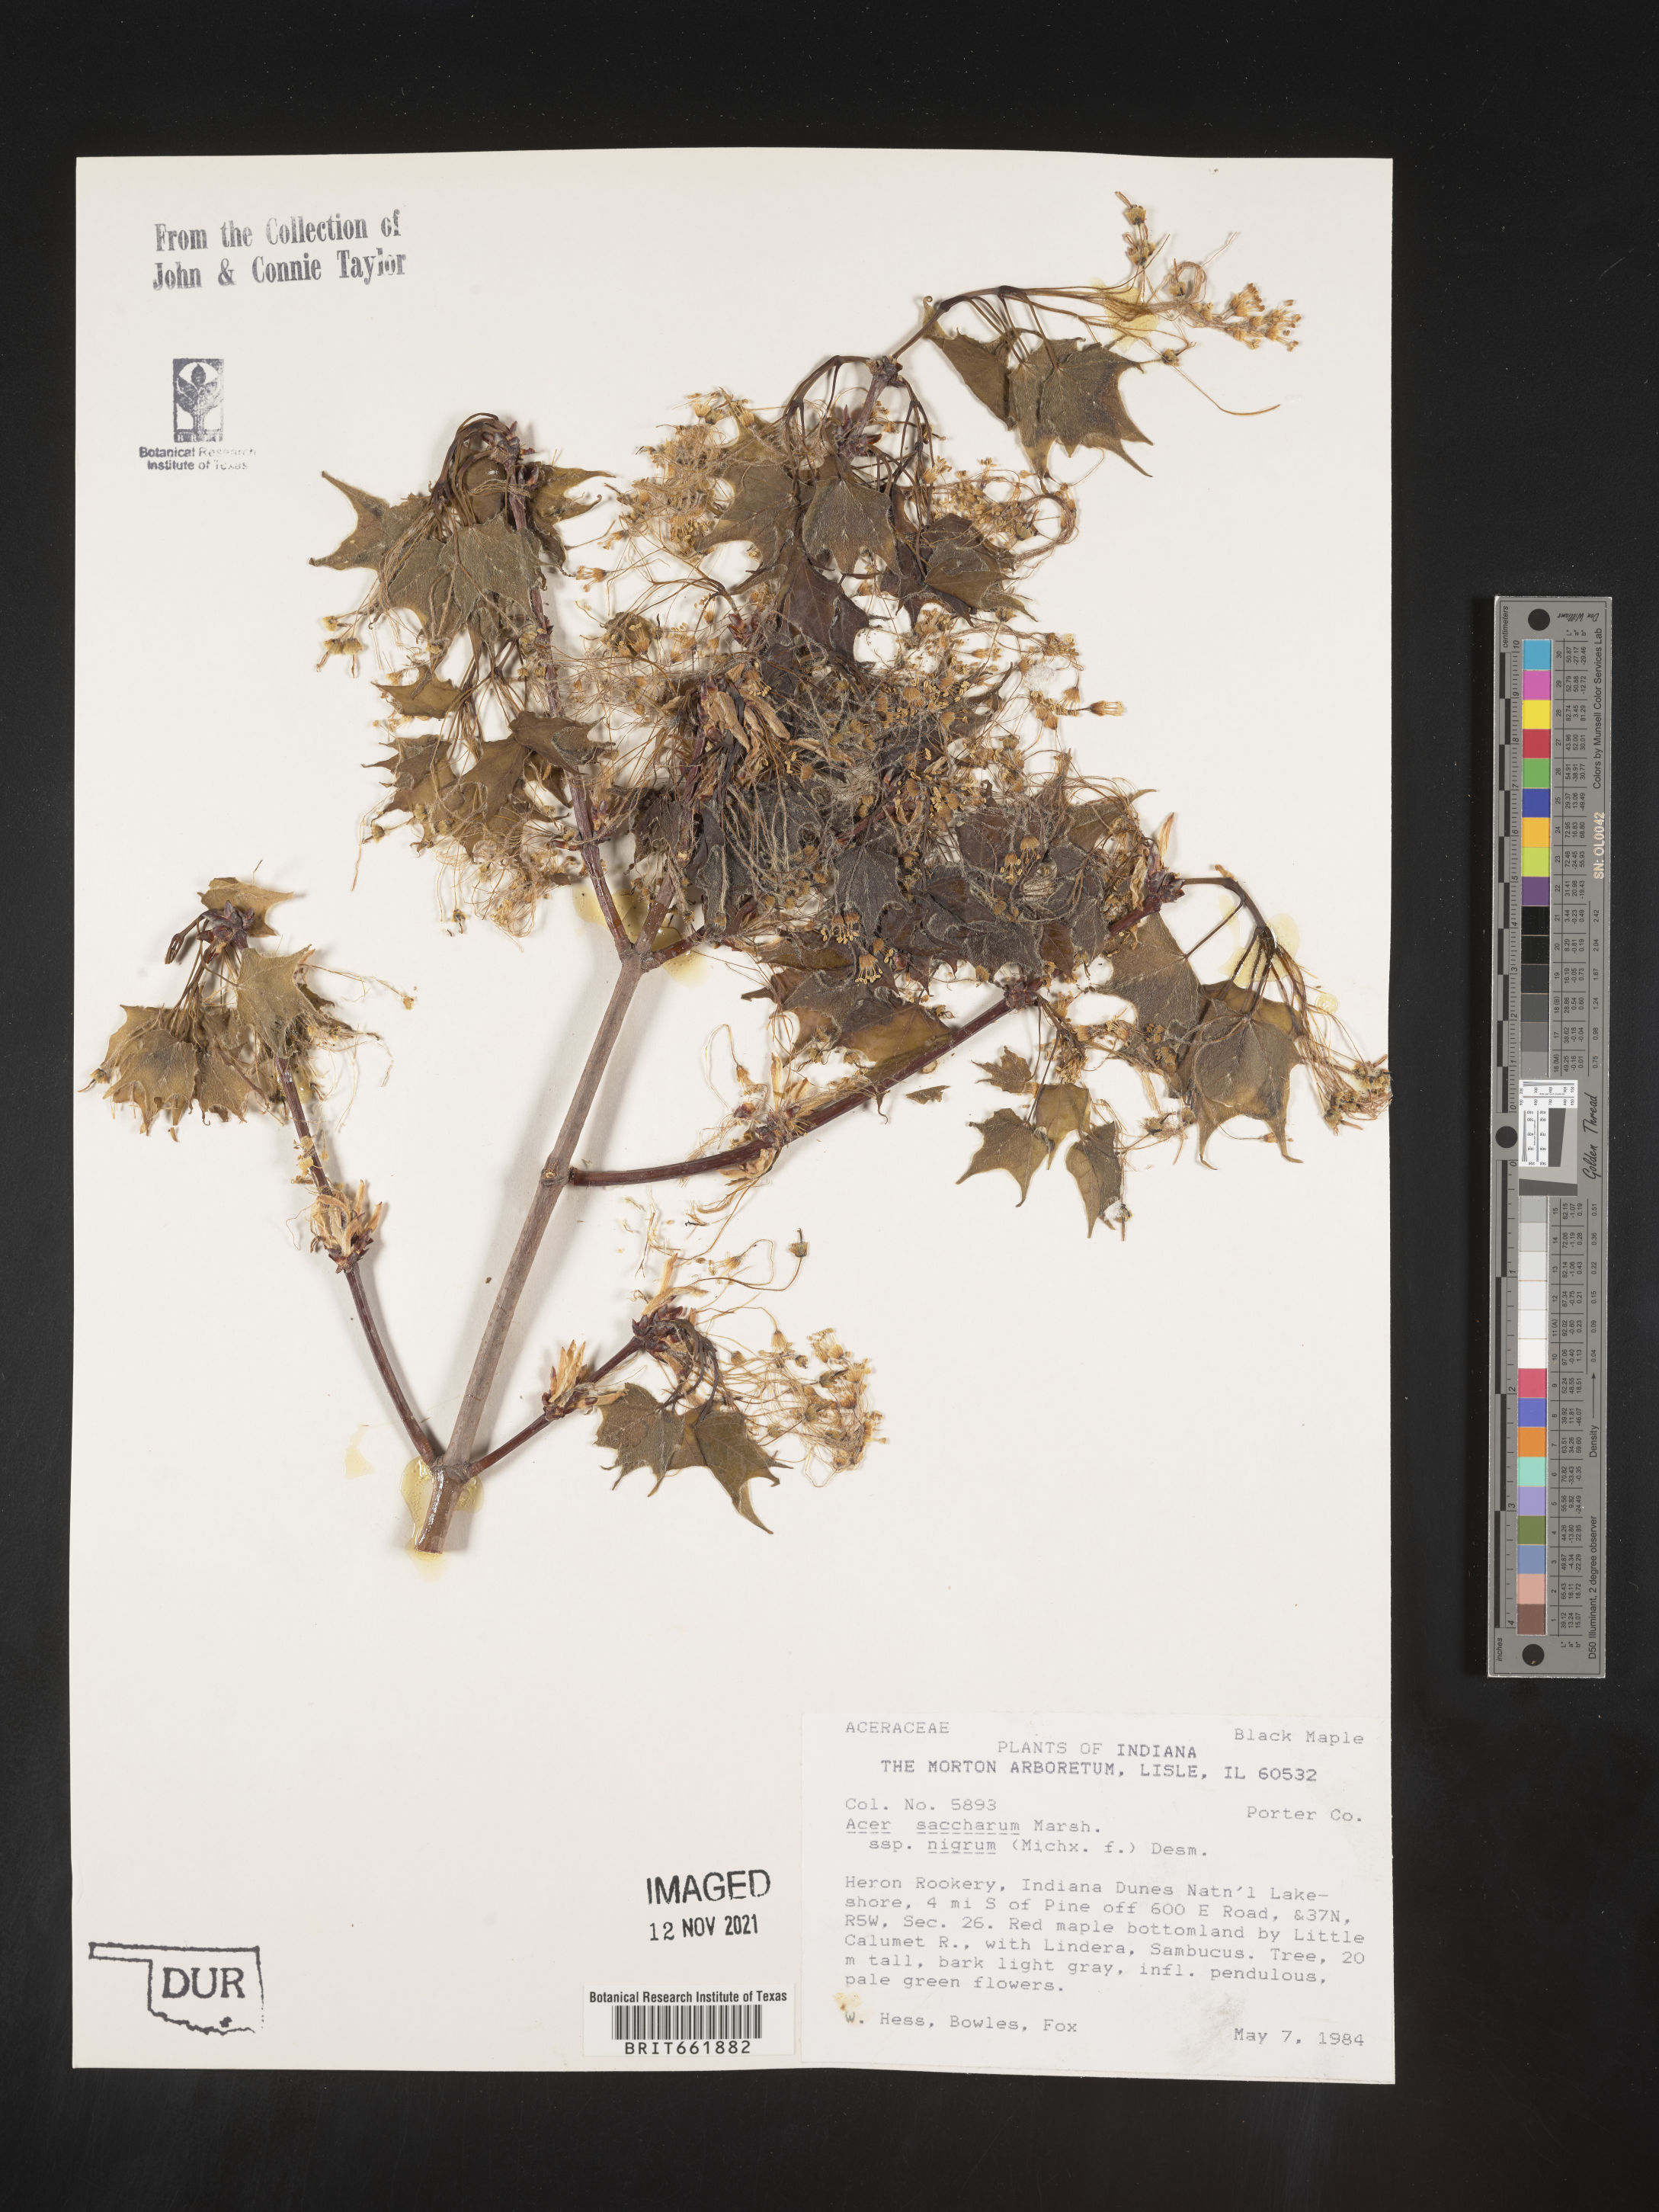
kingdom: Plantae
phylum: Tracheophyta
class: Magnoliopsida
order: Sapindales
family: Sapindaceae
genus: Acer
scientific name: Acer nigrum
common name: Black maple
